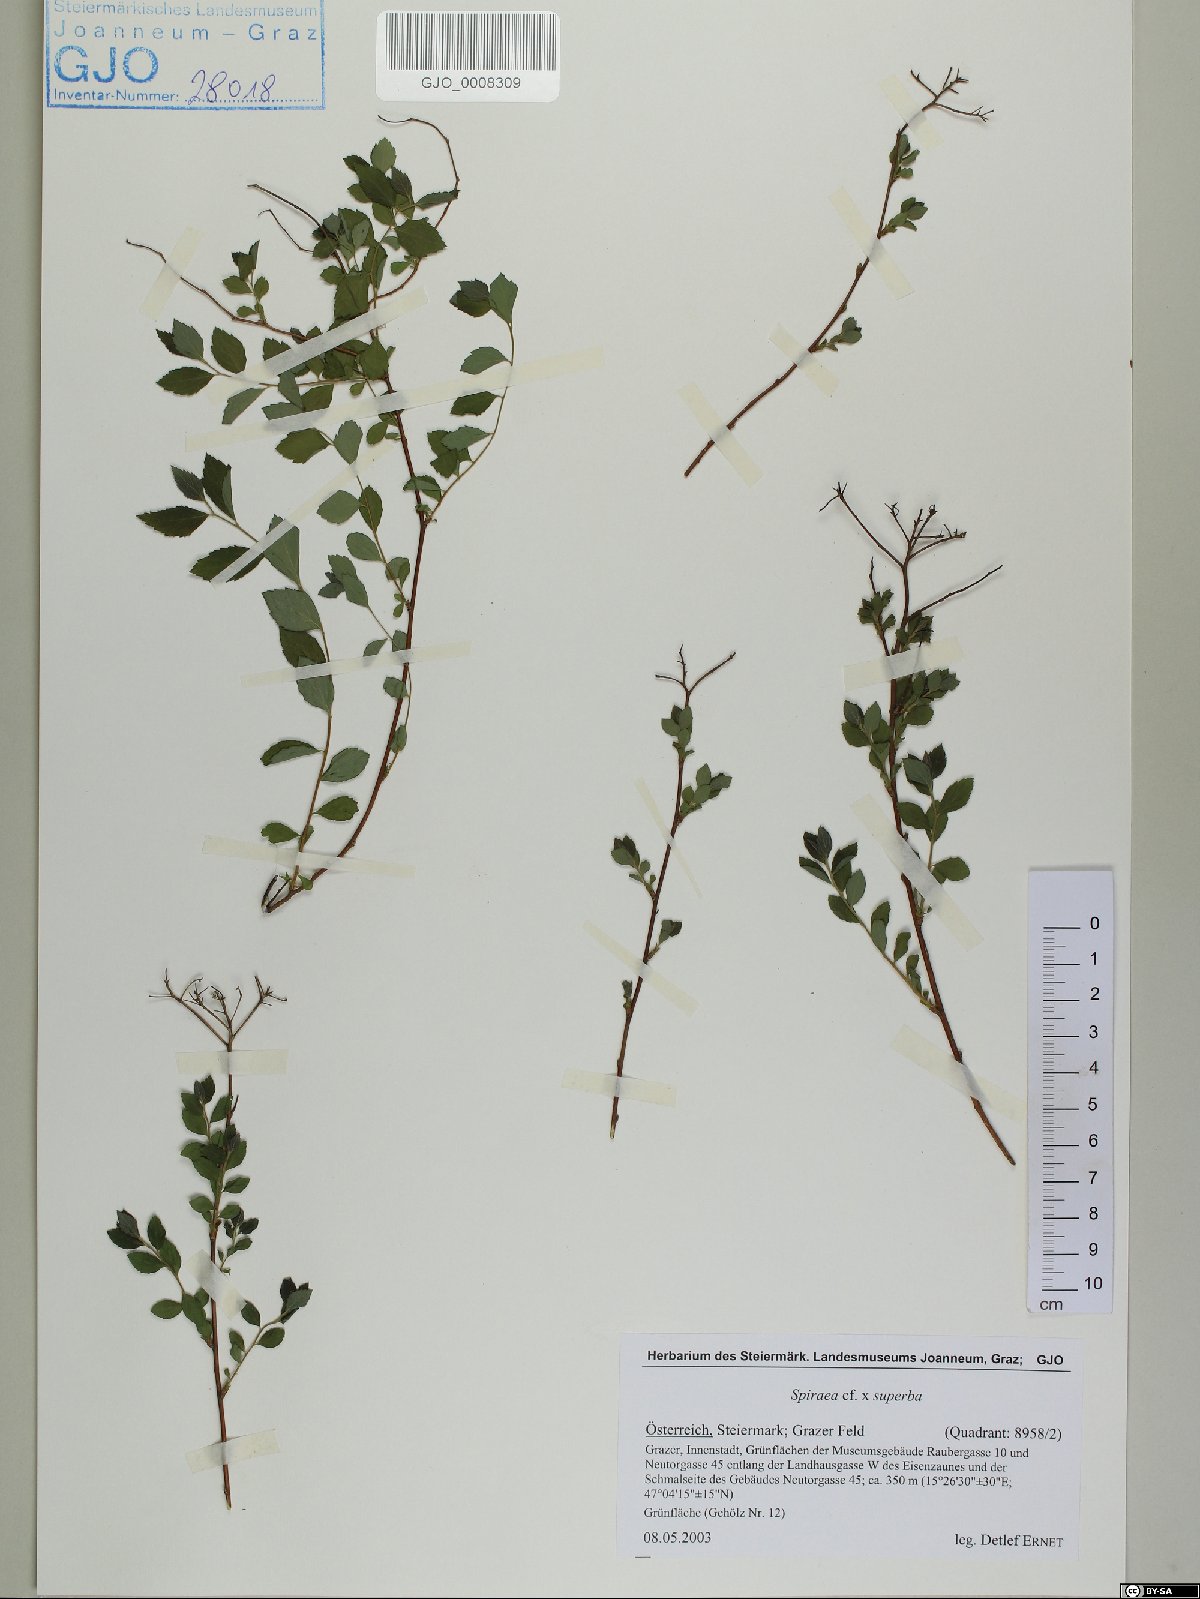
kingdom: Plantae
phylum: Tracheophyta
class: Magnoliopsida
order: Rosales
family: Rosaceae
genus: Spiraea
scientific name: Spiraea superba
